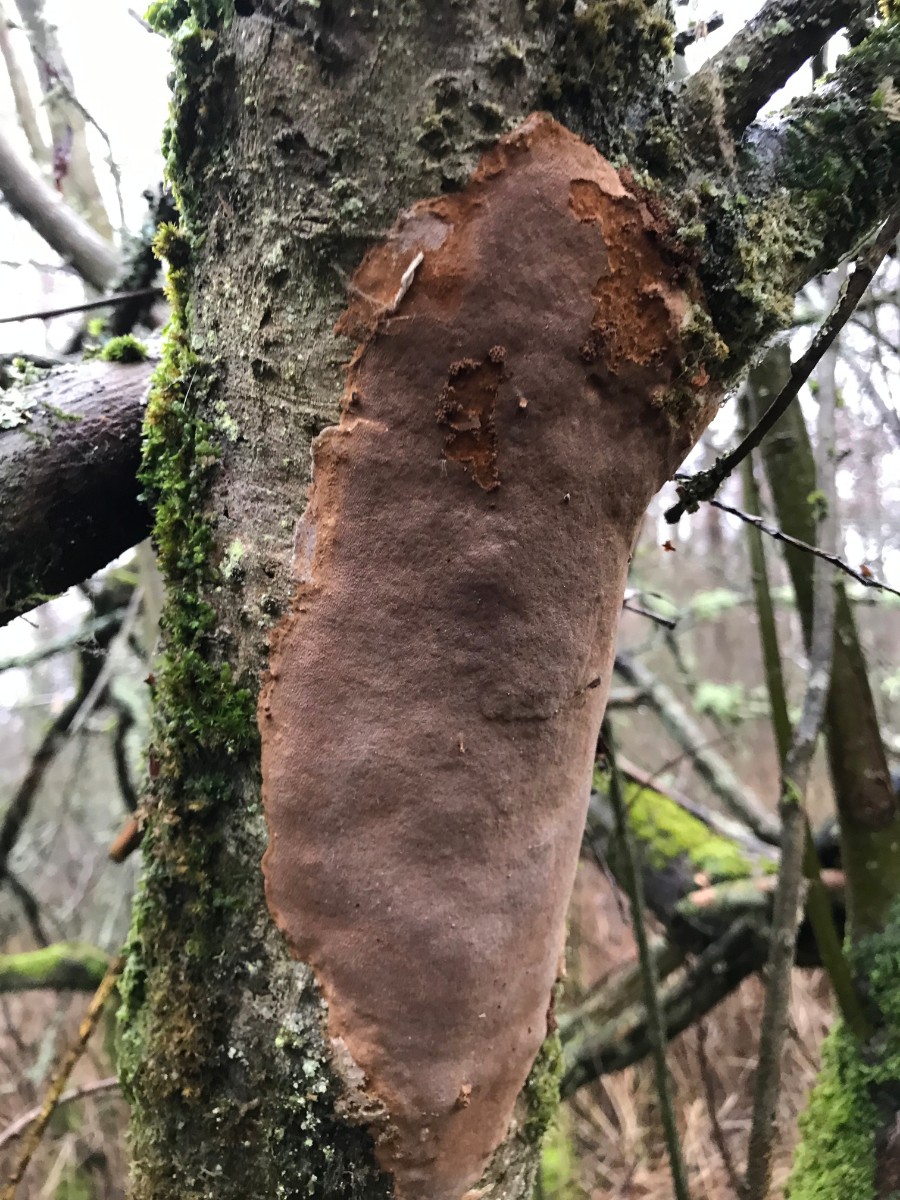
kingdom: Fungi
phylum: Basidiomycota
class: Agaricomycetes
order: Hymenochaetales
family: Hymenochaetaceae
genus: Fomitiporia
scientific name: Fomitiporia punctata
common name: pude-ildporesvamp
